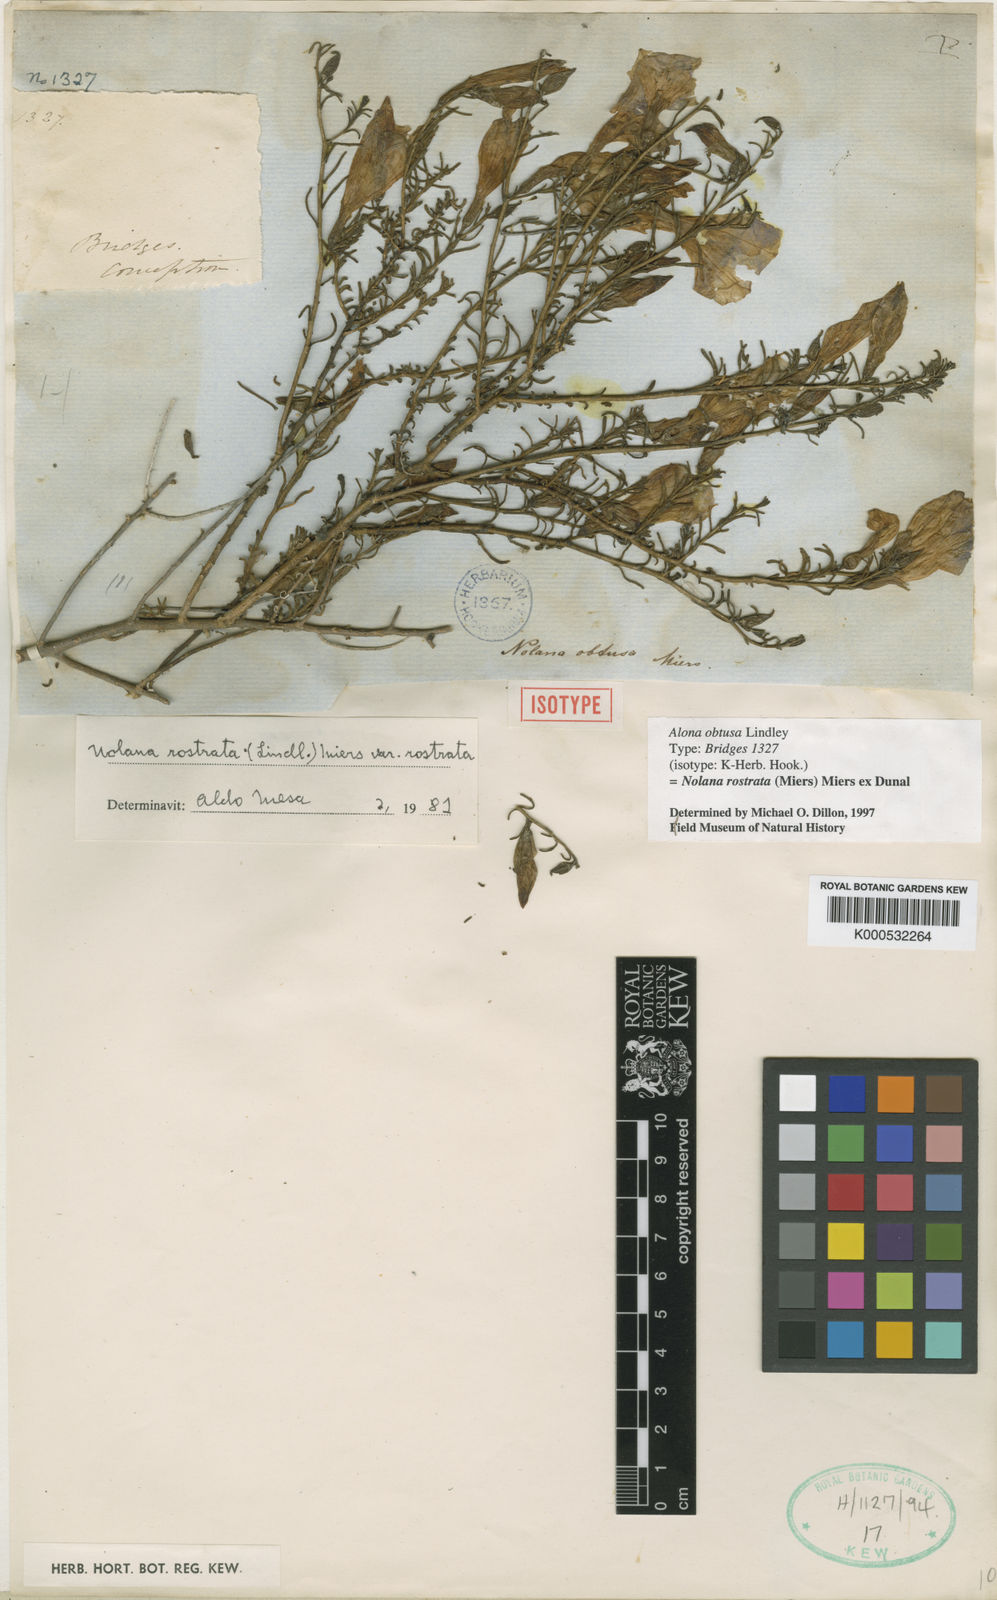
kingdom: Plantae
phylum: Tracheophyta
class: Magnoliopsida
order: Solanales
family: Solanaceae
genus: Nolana
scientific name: Nolana
